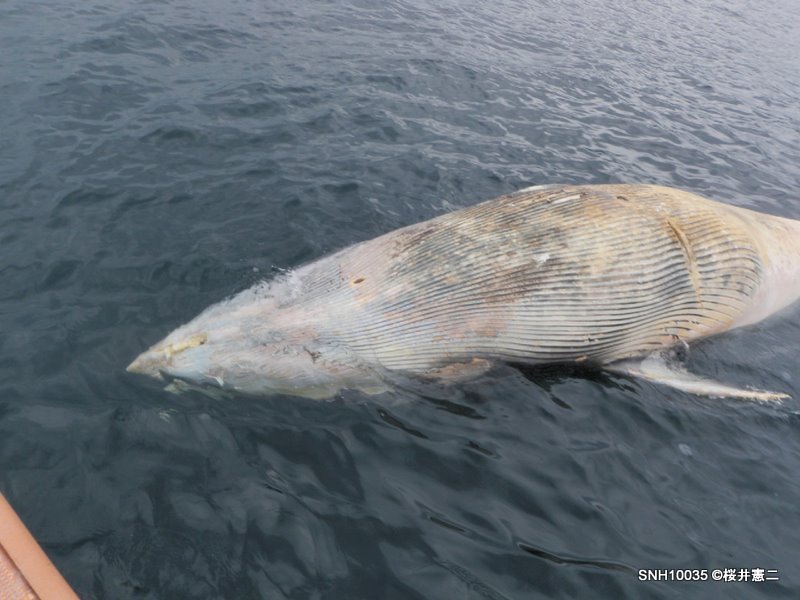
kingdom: Animalia
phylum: Chordata
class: Mammalia
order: Cetacea
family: Balaenopteridae
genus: Balaenoptera
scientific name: Balaenoptera acutorostrata
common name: Minke whale
